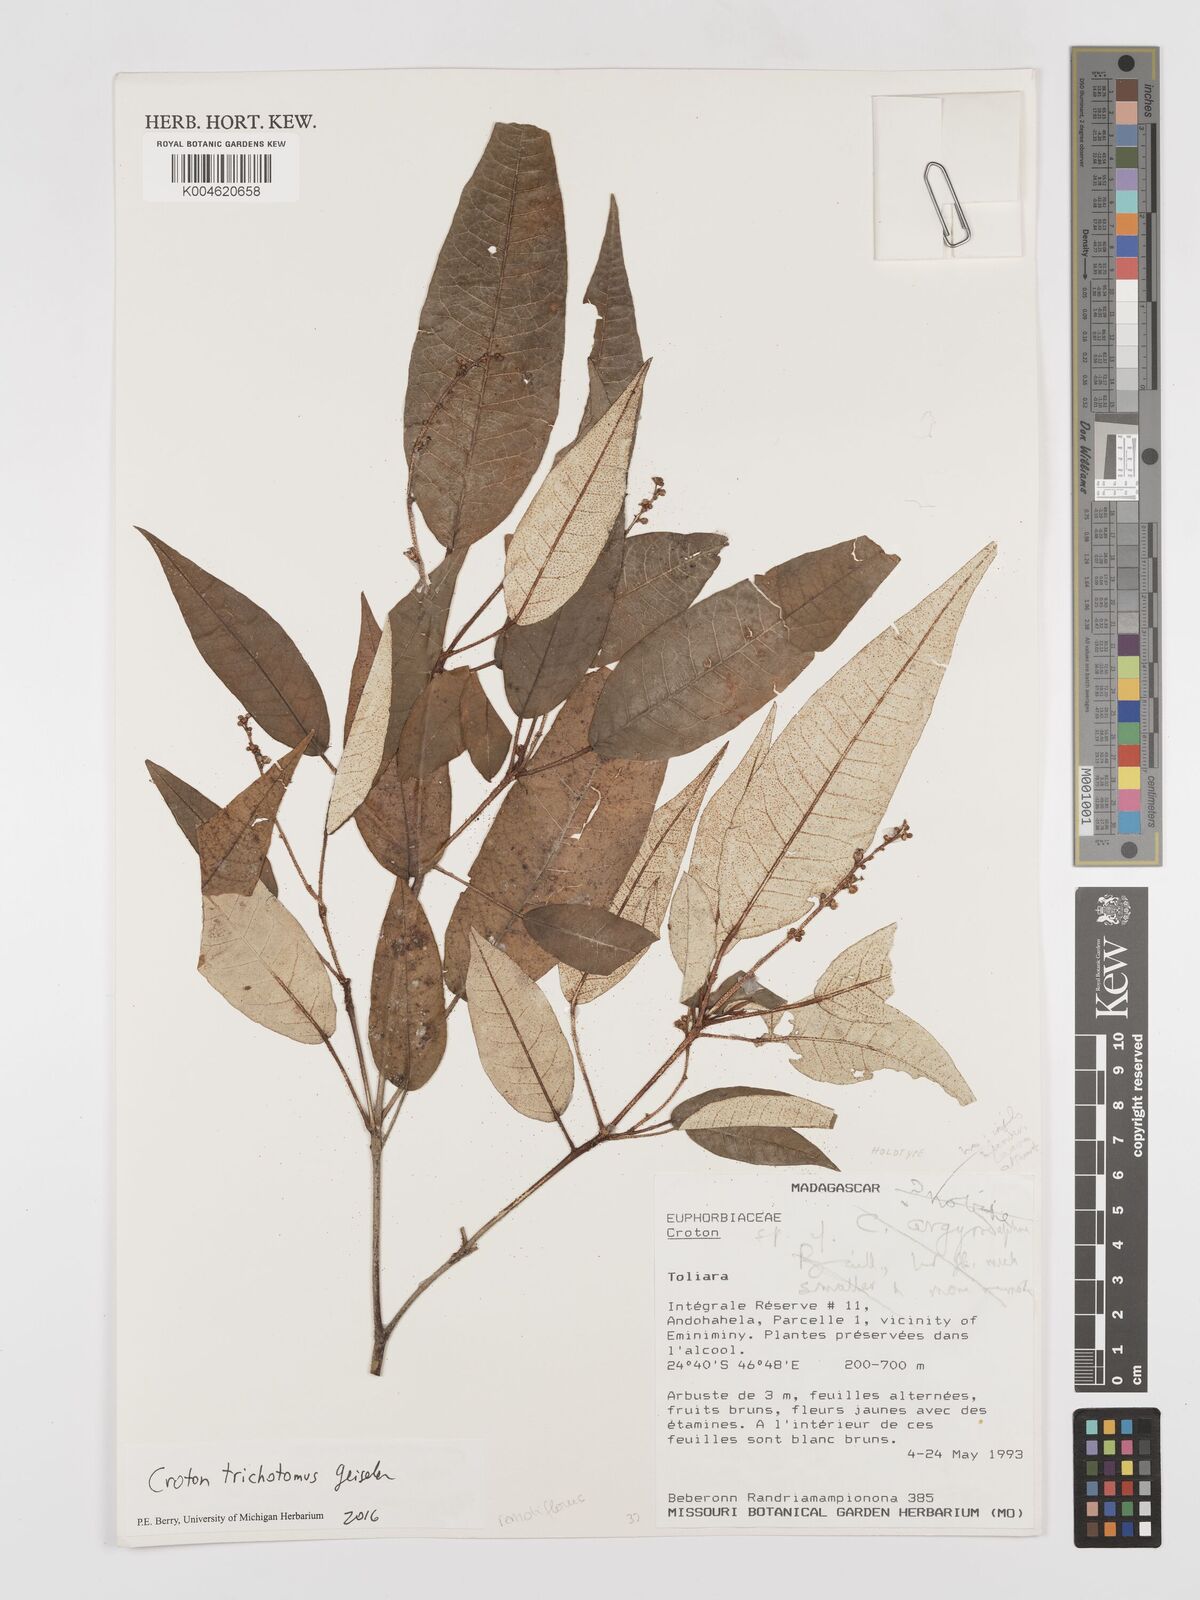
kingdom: Plantae
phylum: Tracheophyta
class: Magnoliopsida
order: Malpighiales
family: Euphorbiaceae
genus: Croton
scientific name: Croton trichotomus
